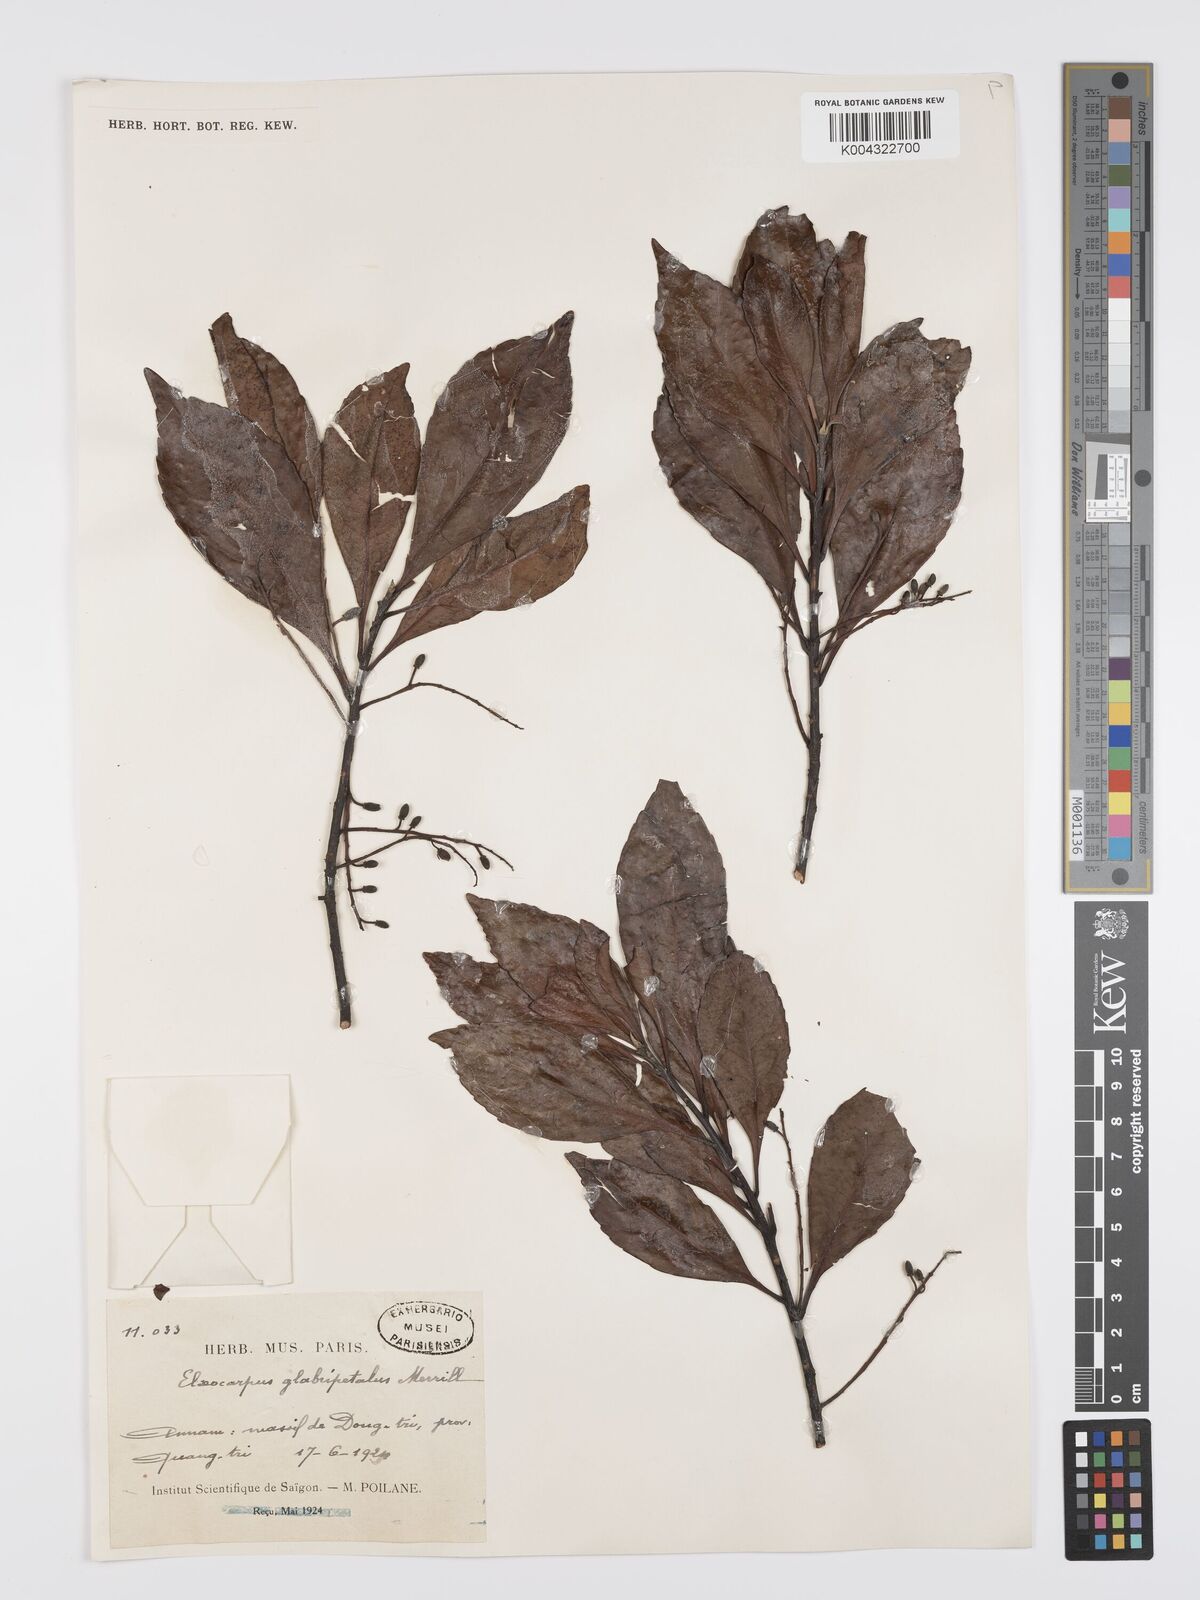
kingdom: Plantae
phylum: Tracheophyta
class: Magnoliopsida
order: Oxalidales
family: Elaeocarpaceae
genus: Elaeocarpus
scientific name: Elaeocarpus glabripetalus
